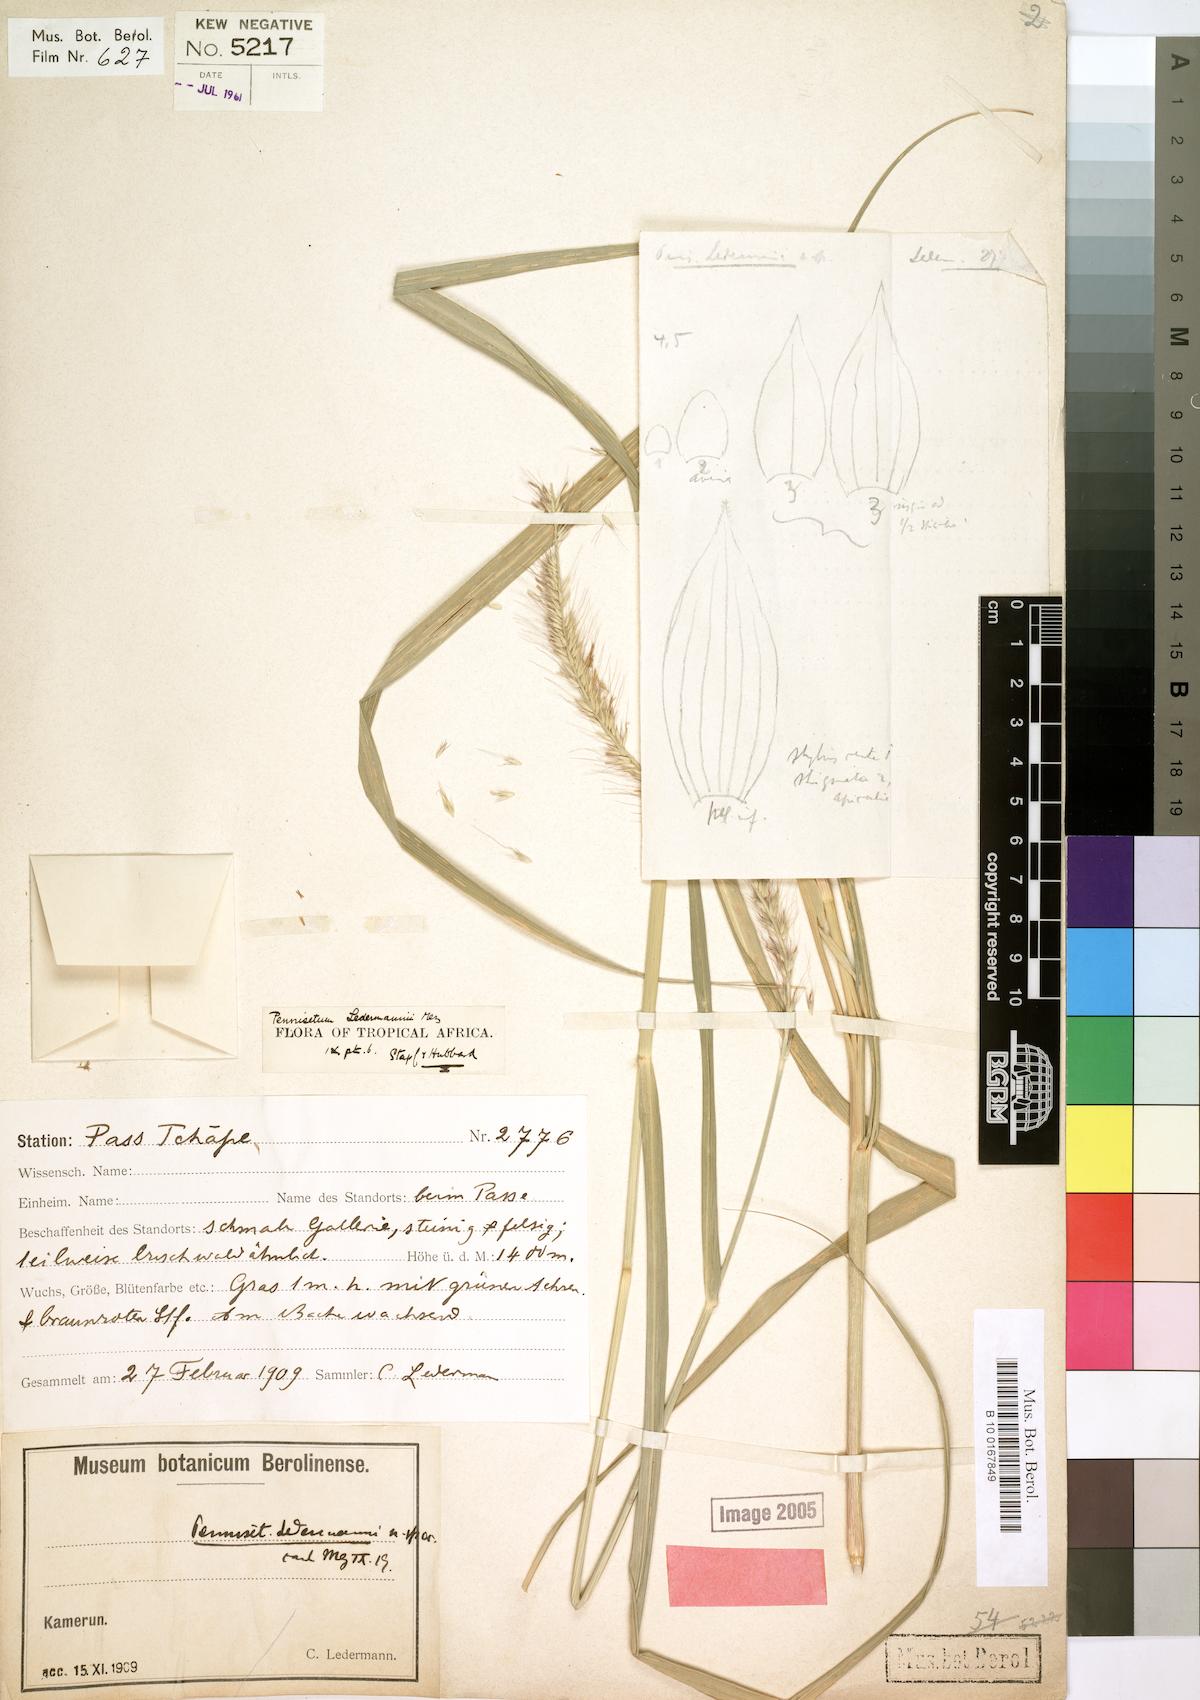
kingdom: Plantae
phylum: Tracheophyta
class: Liliopsida
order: Poales
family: Poaceae
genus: Cenchrus
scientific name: Cenchrus ledermannii
